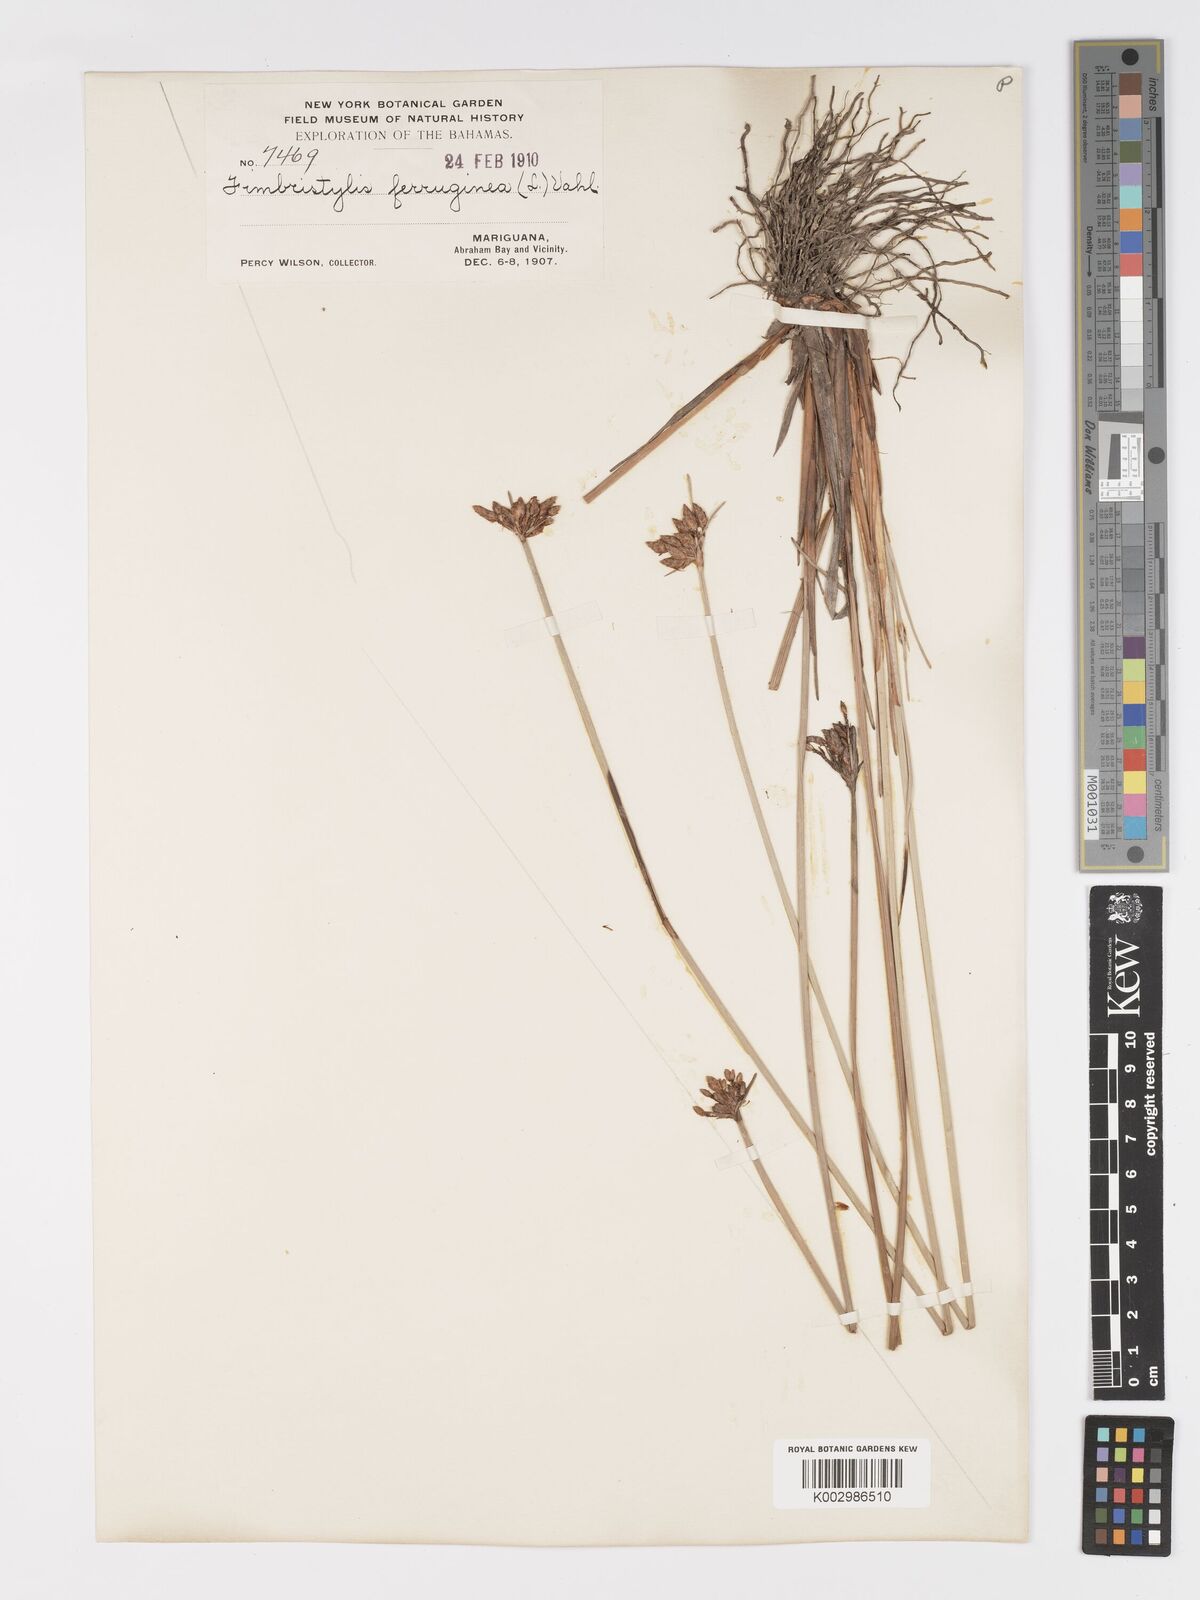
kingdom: Plantae
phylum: Tracheophyta
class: Liliopsida
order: Poales
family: Cyperaceae
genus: Fimbristylis
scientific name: Fimbristylis ferruginea
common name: West indian fimbry
